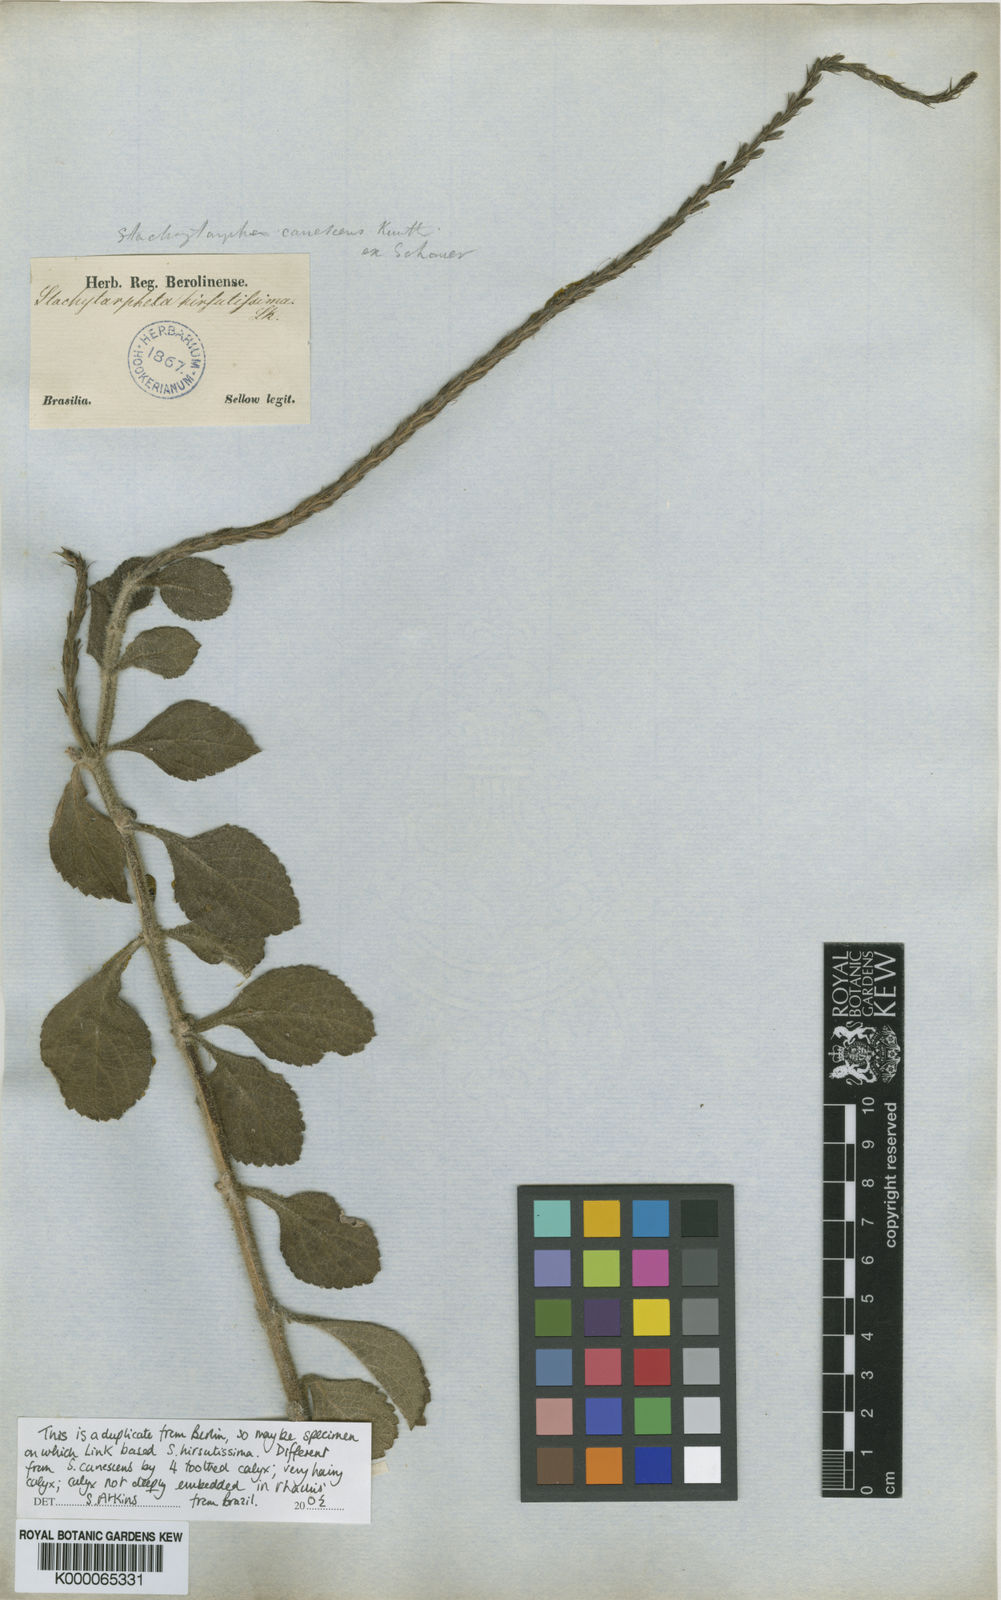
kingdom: Plantae
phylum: Tracheophyta
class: Magnoliopsida
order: Lamiales
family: Verbenaceae
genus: Stachytarpheta
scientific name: Stachytarpheta hirsutissima
